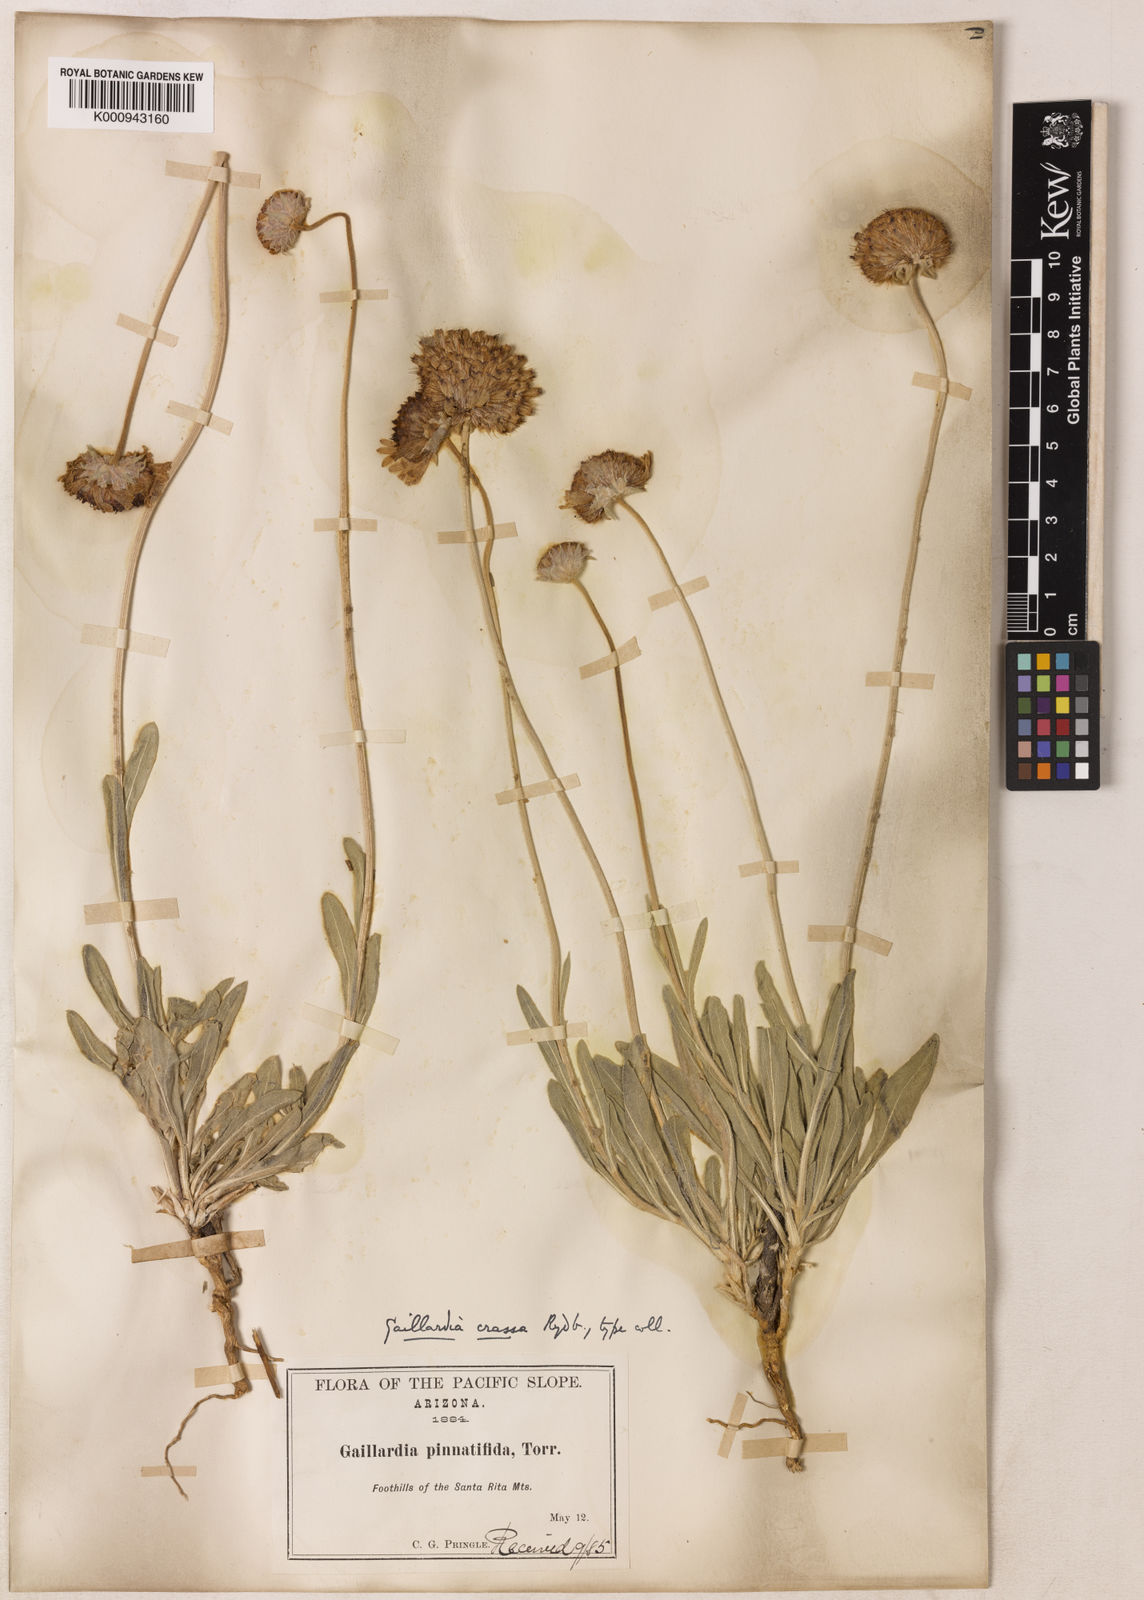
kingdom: Plantae
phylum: Tracheophyta
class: Magnoliopsida
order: Asterales
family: Asteraceae
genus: Gaillardia
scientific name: Gaillardia pinnatifida
